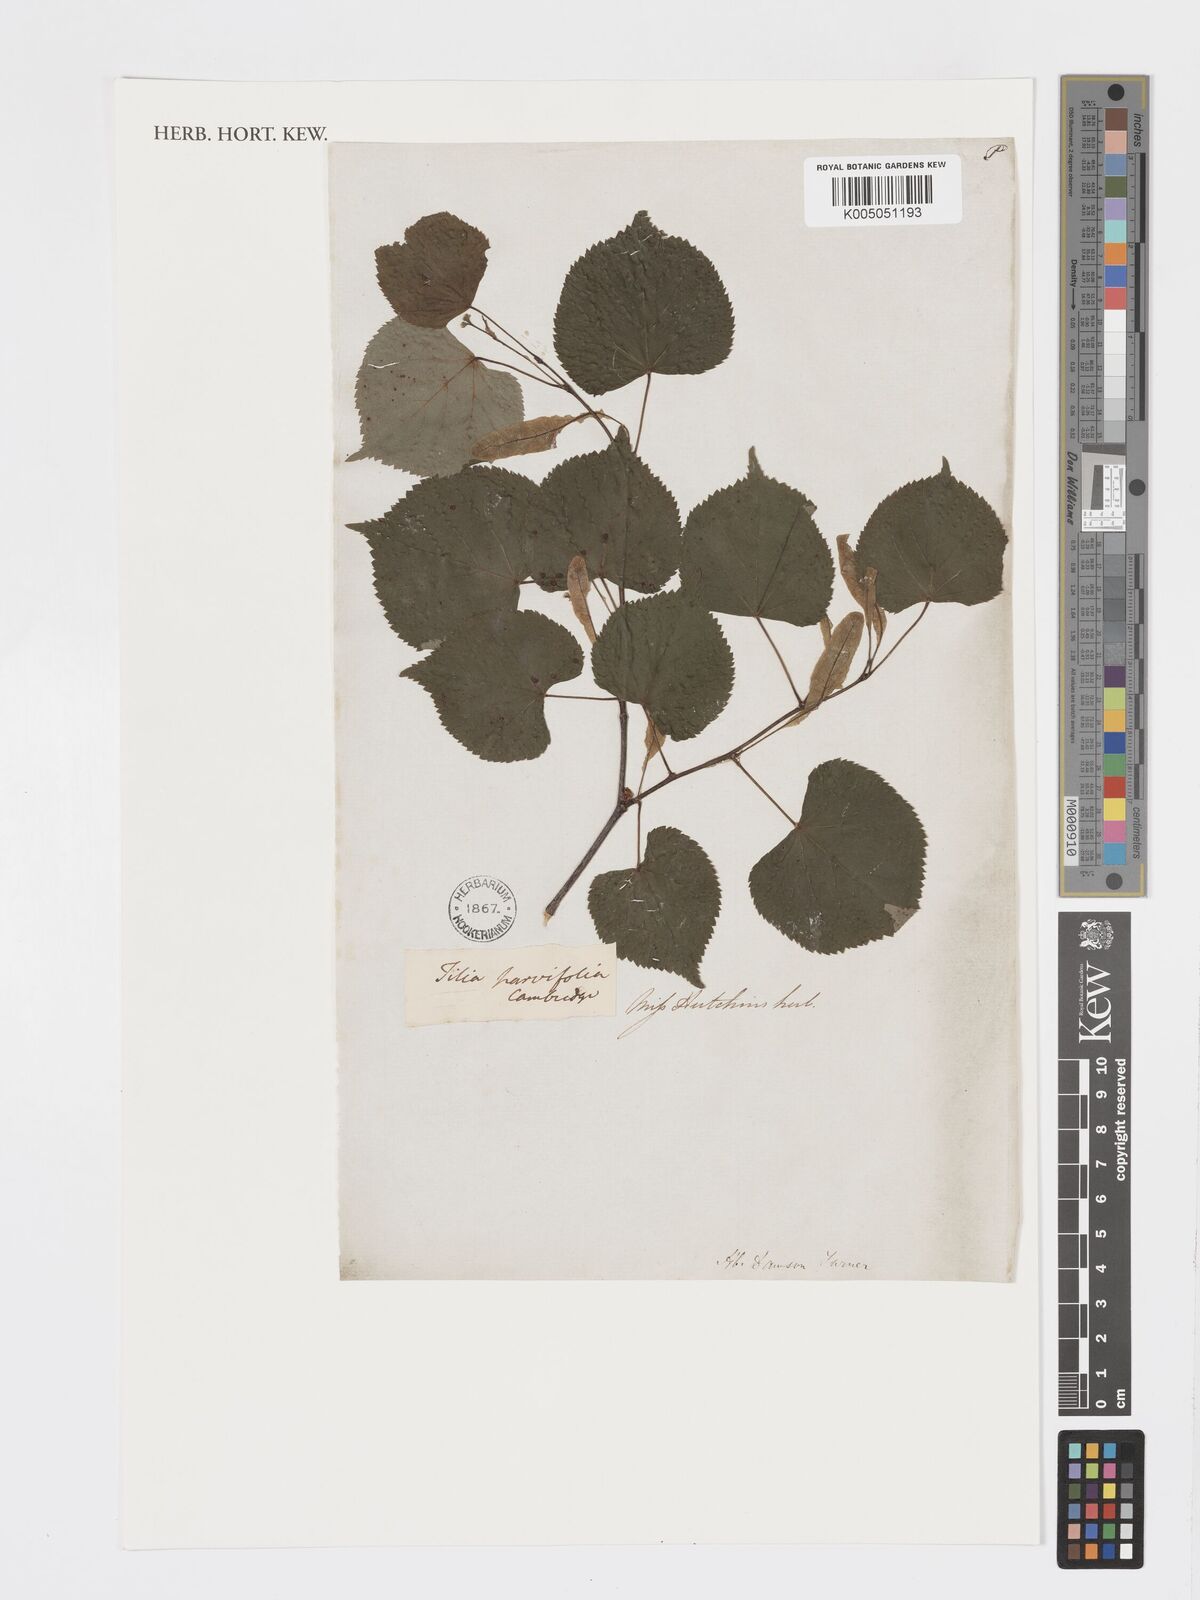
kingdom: Plantae
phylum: Tracheophyta
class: Magnoliopsida
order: Malvales
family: Malvaceae
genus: Tilia
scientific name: Tilia
